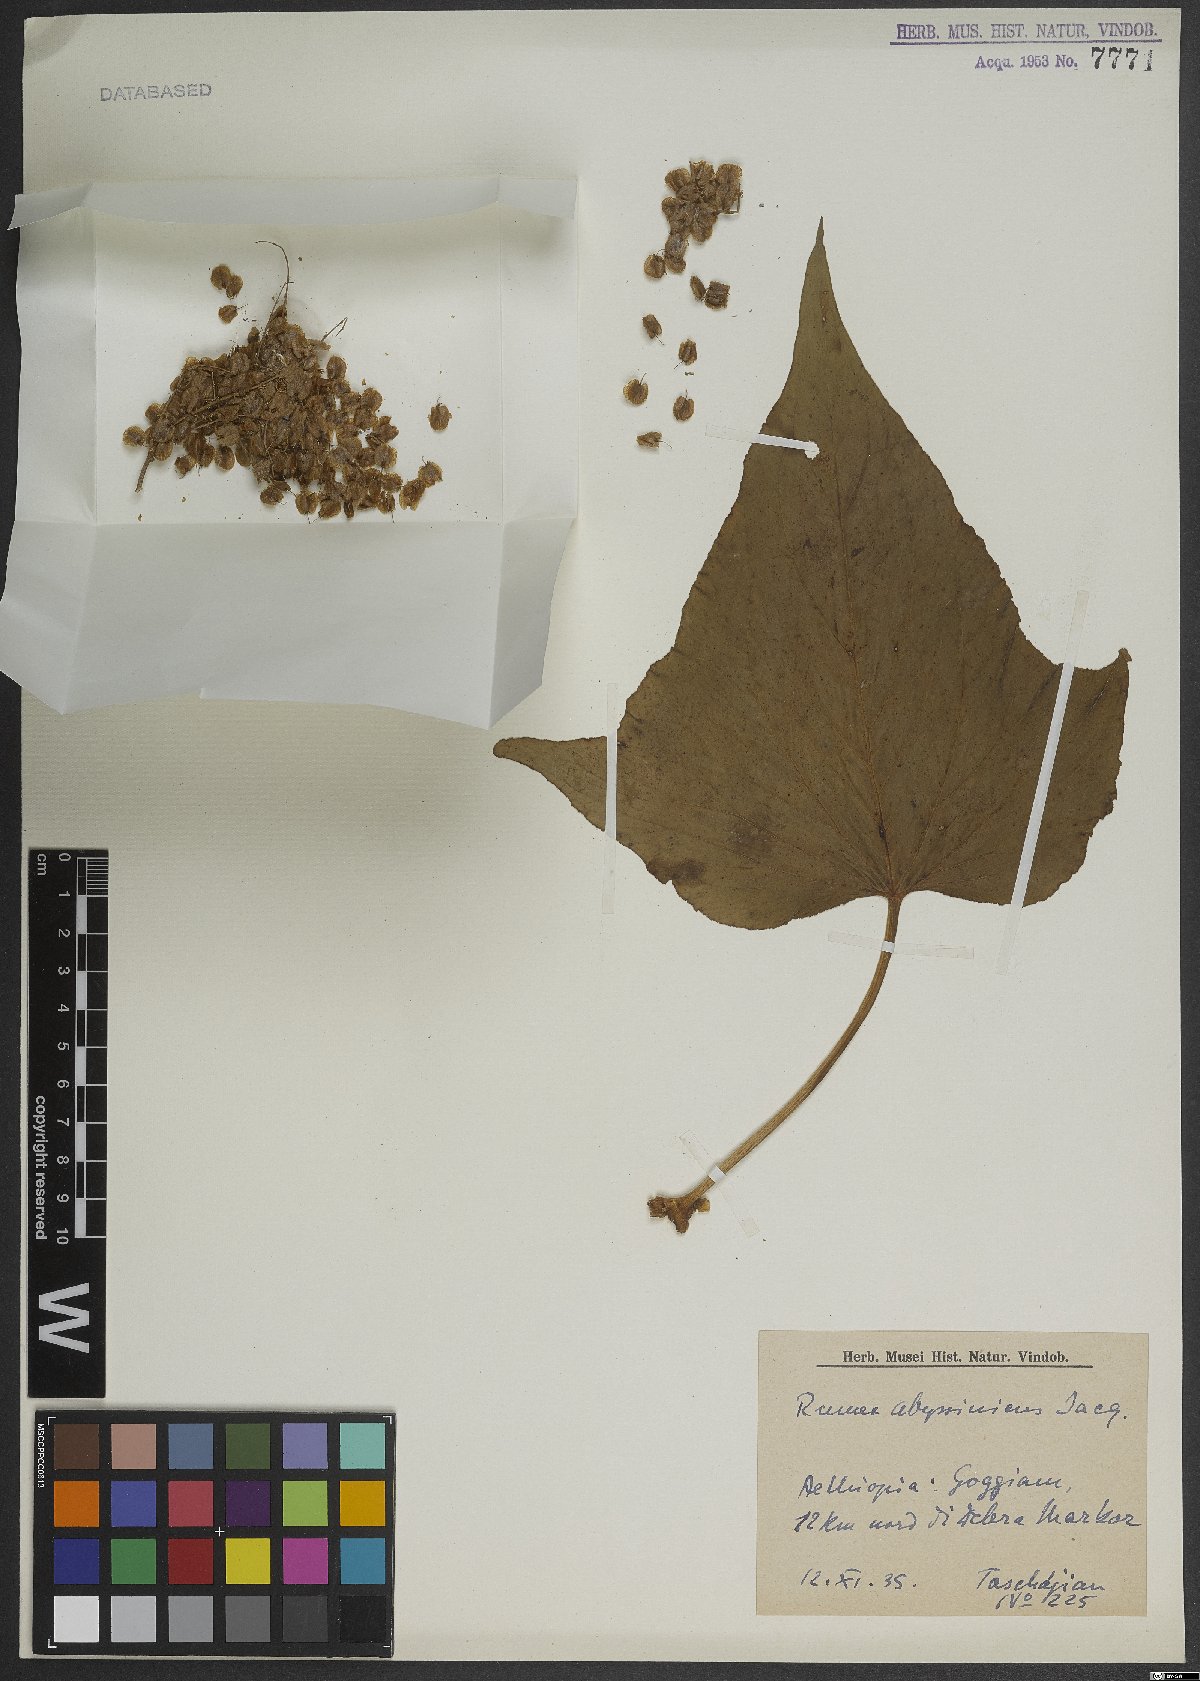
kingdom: Plantae
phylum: Tracheophyta
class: Magnoliopsida
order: Caryophyllales
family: Polygonaceae
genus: Rumex
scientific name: Rumex abyssinicus
